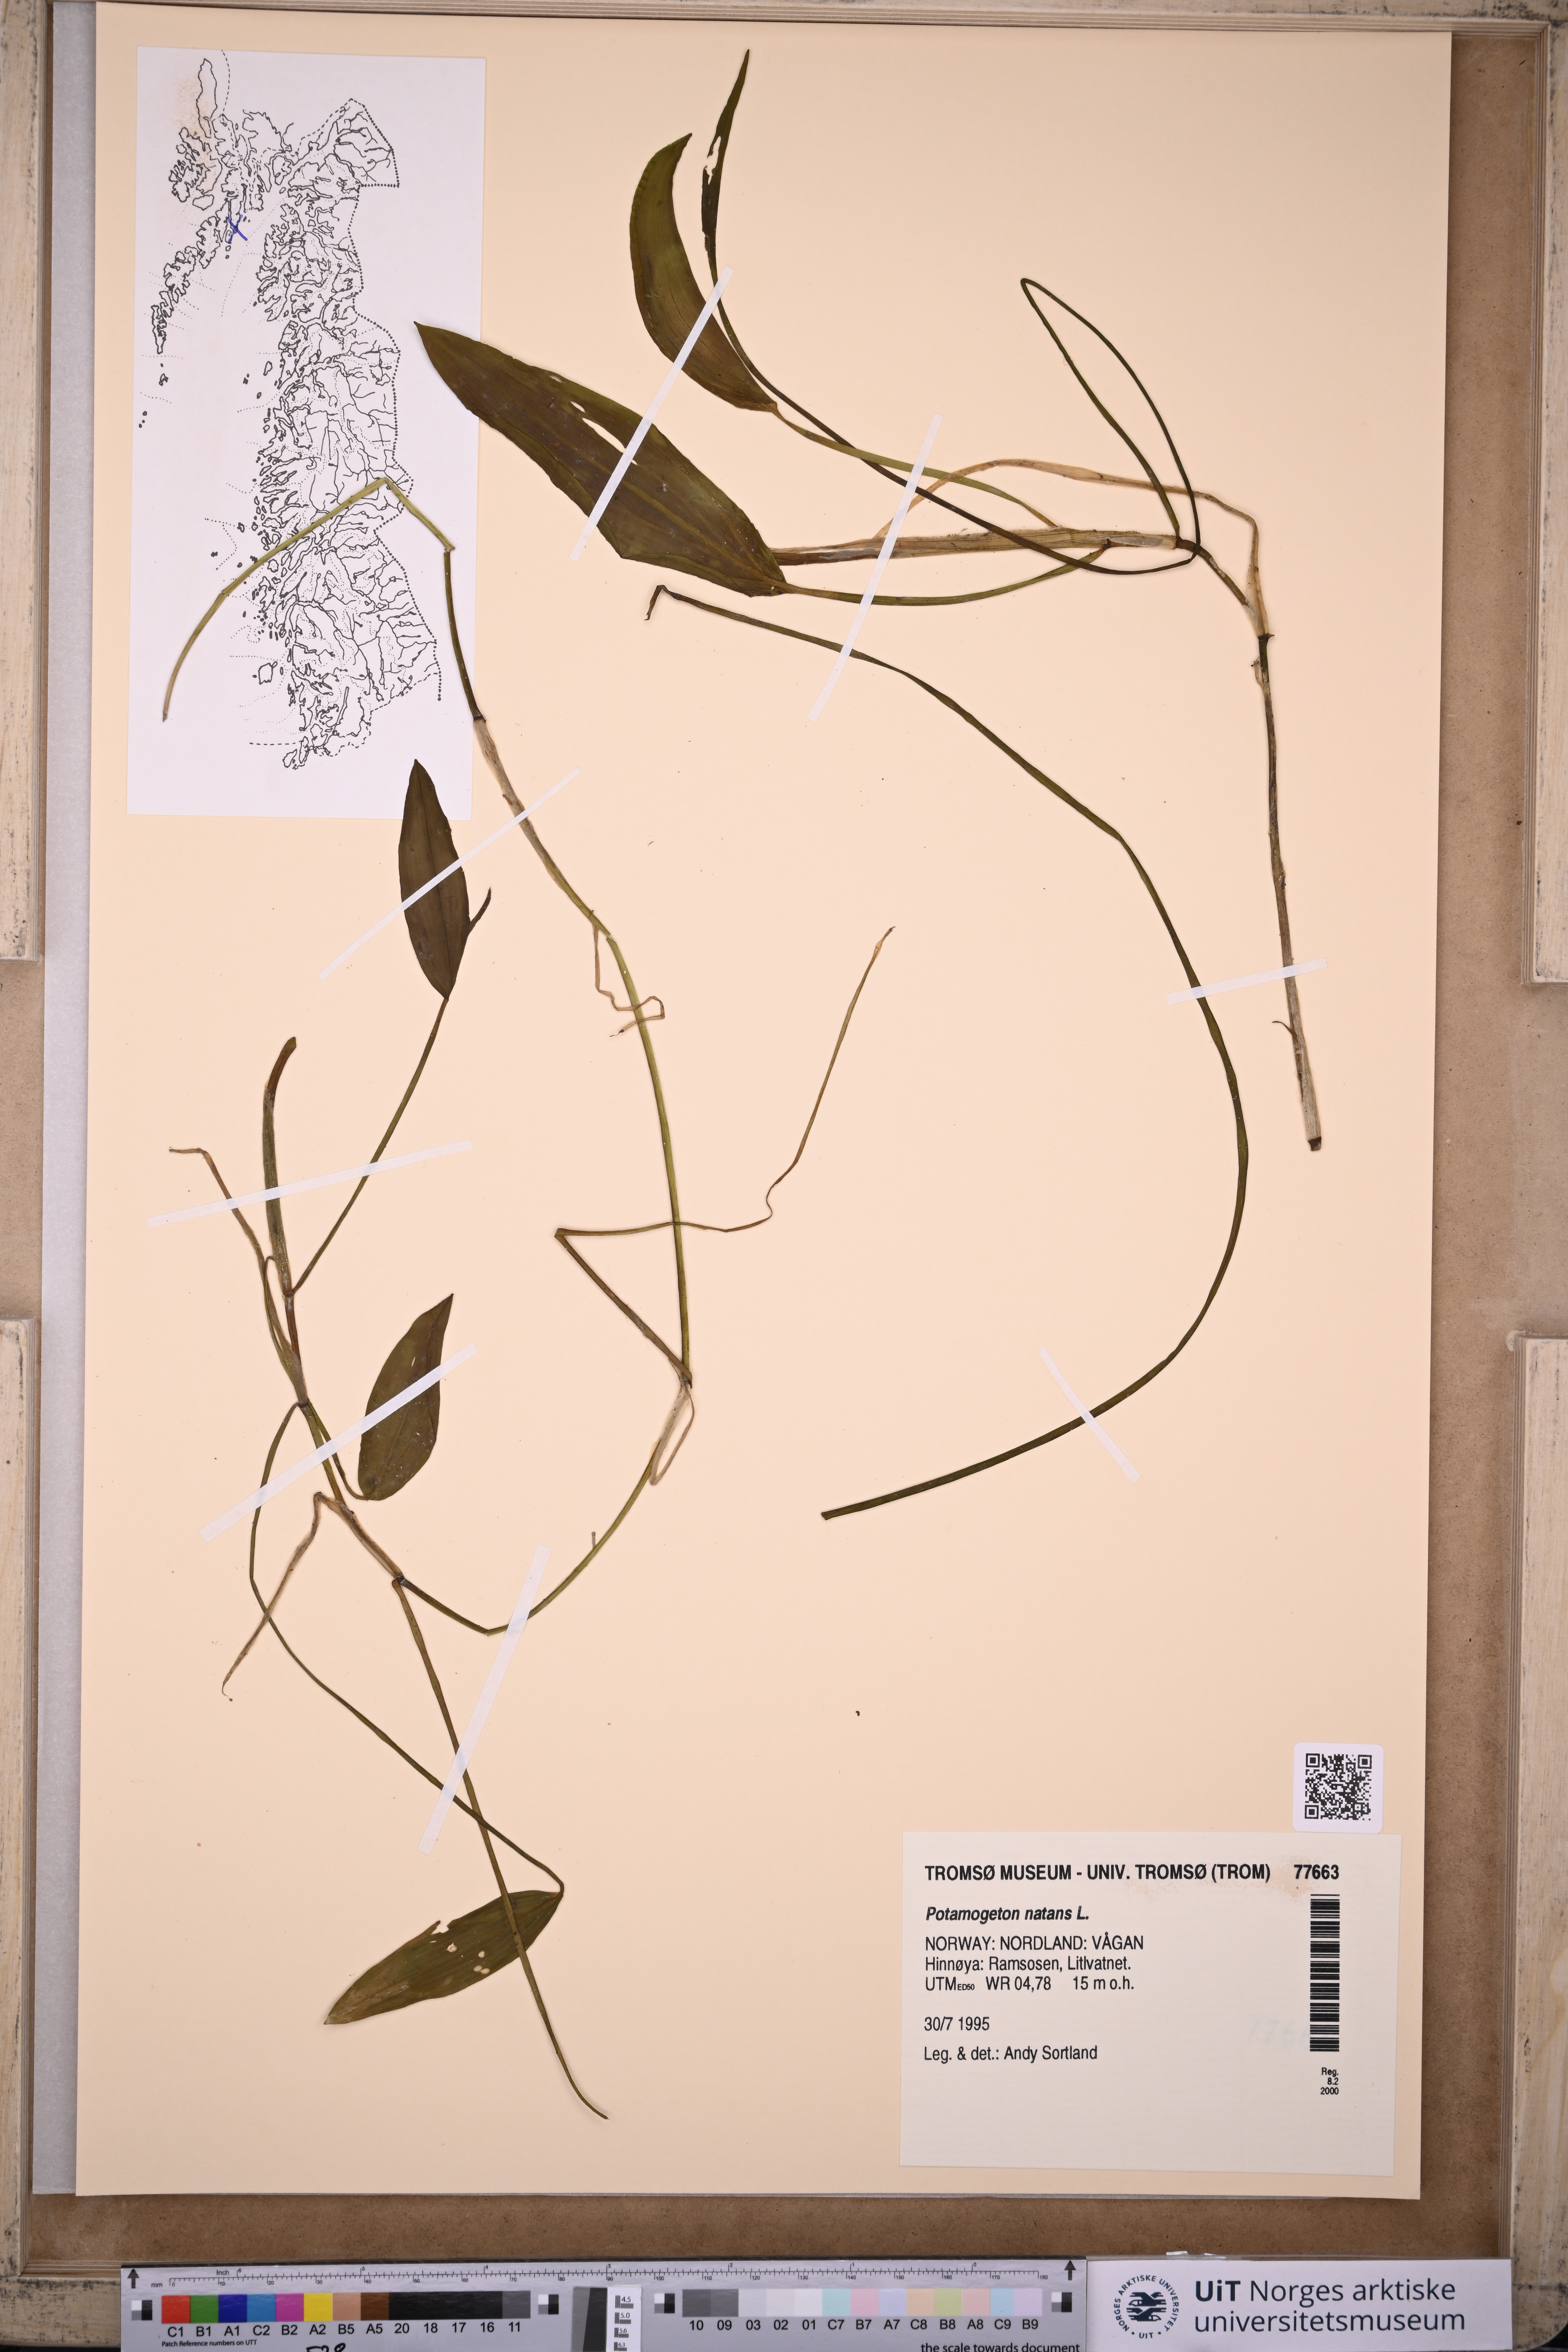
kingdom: Plantae
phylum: Tracheophyta
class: Liliopsida
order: Alismatales
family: Potamogetonaceae
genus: Potamogeton
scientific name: Potamogeton natans
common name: Broad-leaved pondweed
